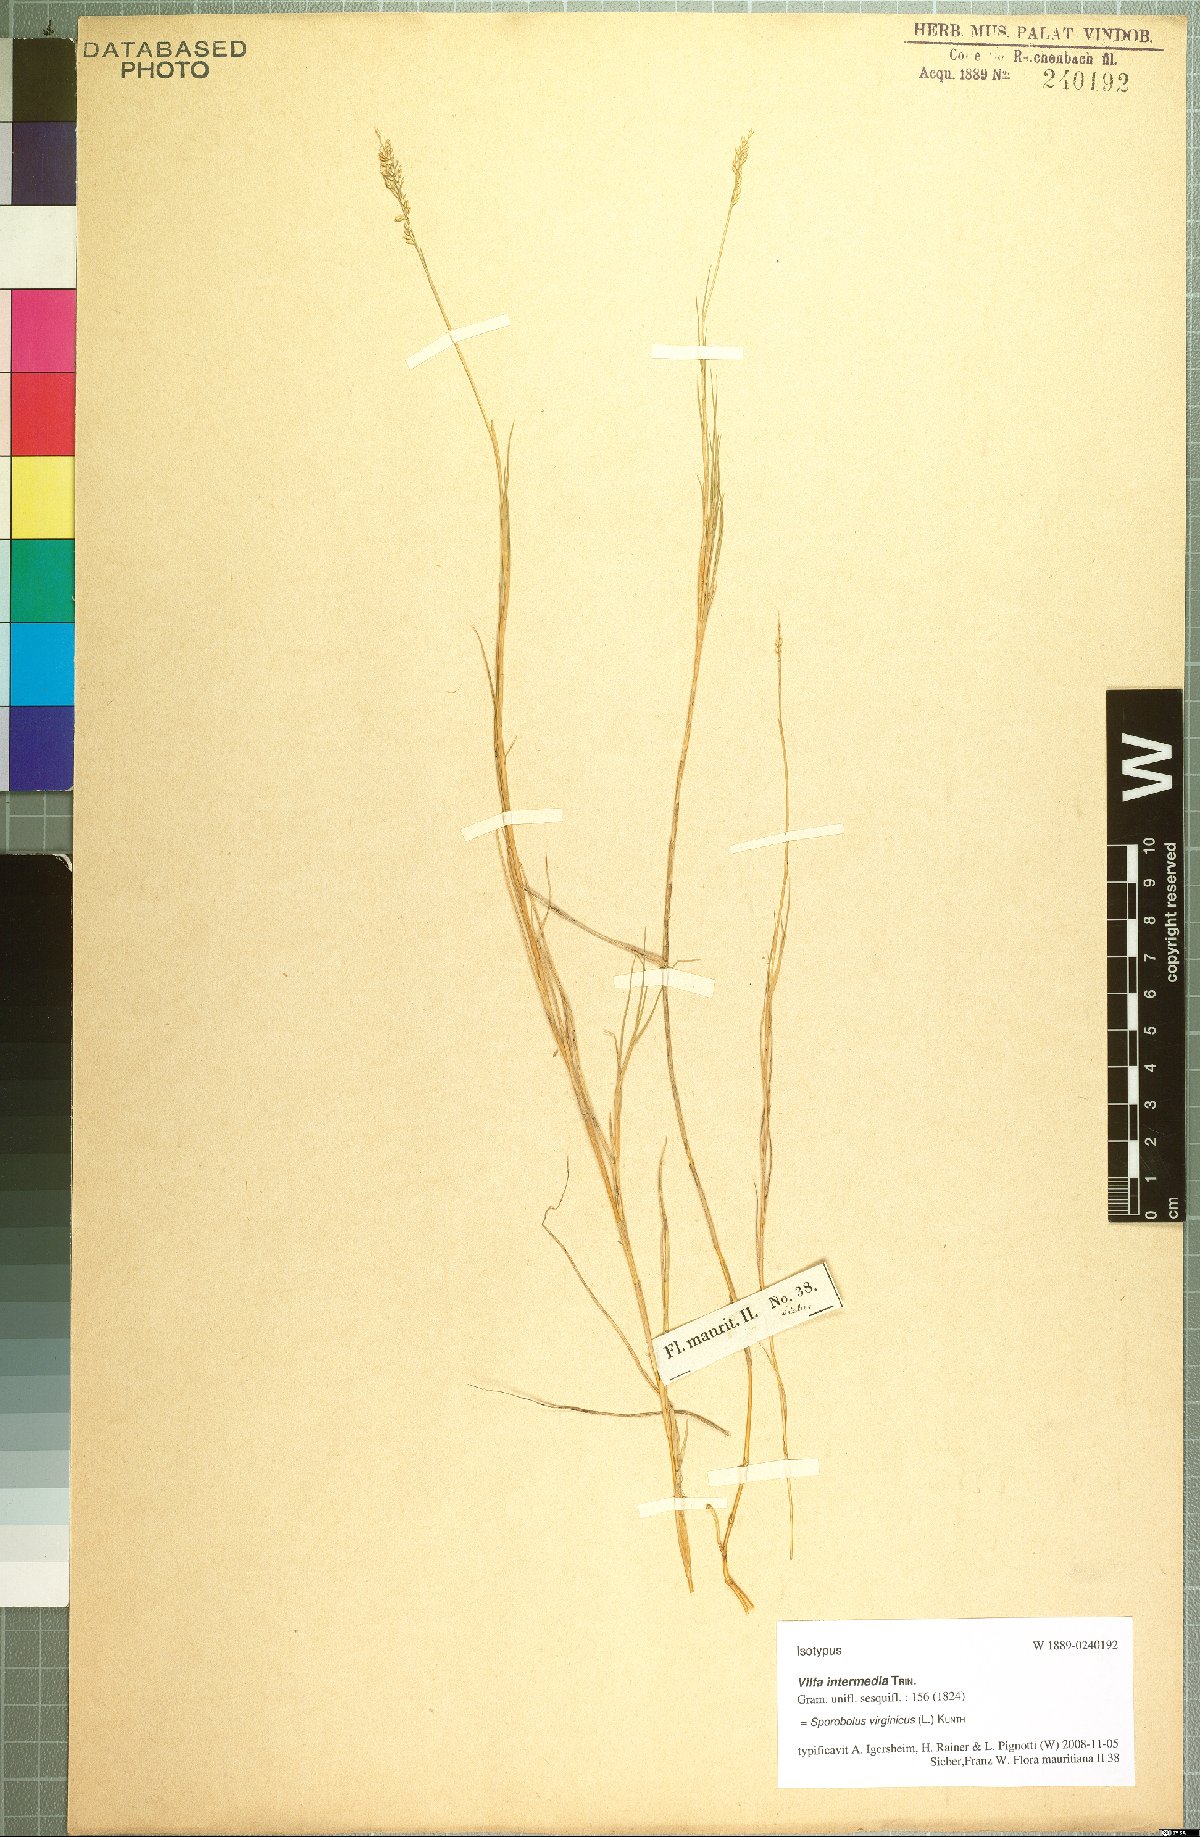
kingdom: Plantae
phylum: Tracheophyta
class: Liliopsida
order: Poales
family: Poaceae
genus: Sporobolus
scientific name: Sporobolus virginicus
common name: Beach dropseed
